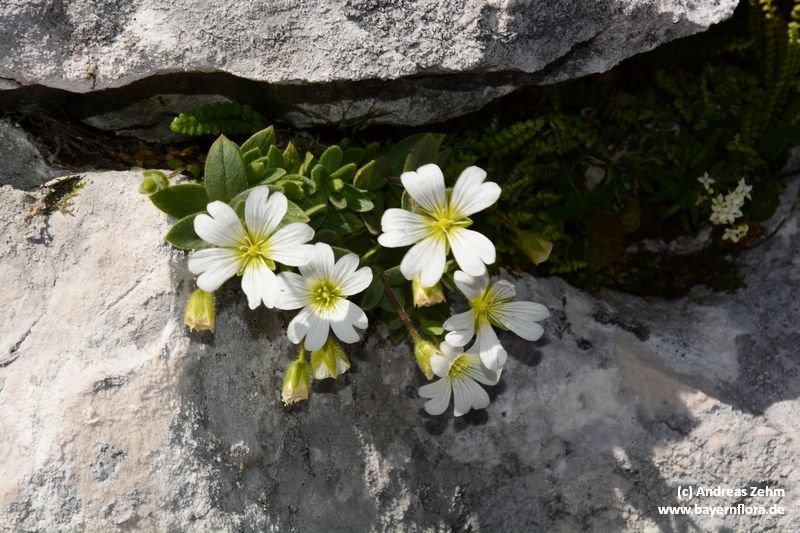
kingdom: Plantae
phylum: Tracheophyta
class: Magnoliopsida
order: Caryophyllales
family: Caryophyllaceae
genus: Cerastium
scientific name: Cerastium latifolium
